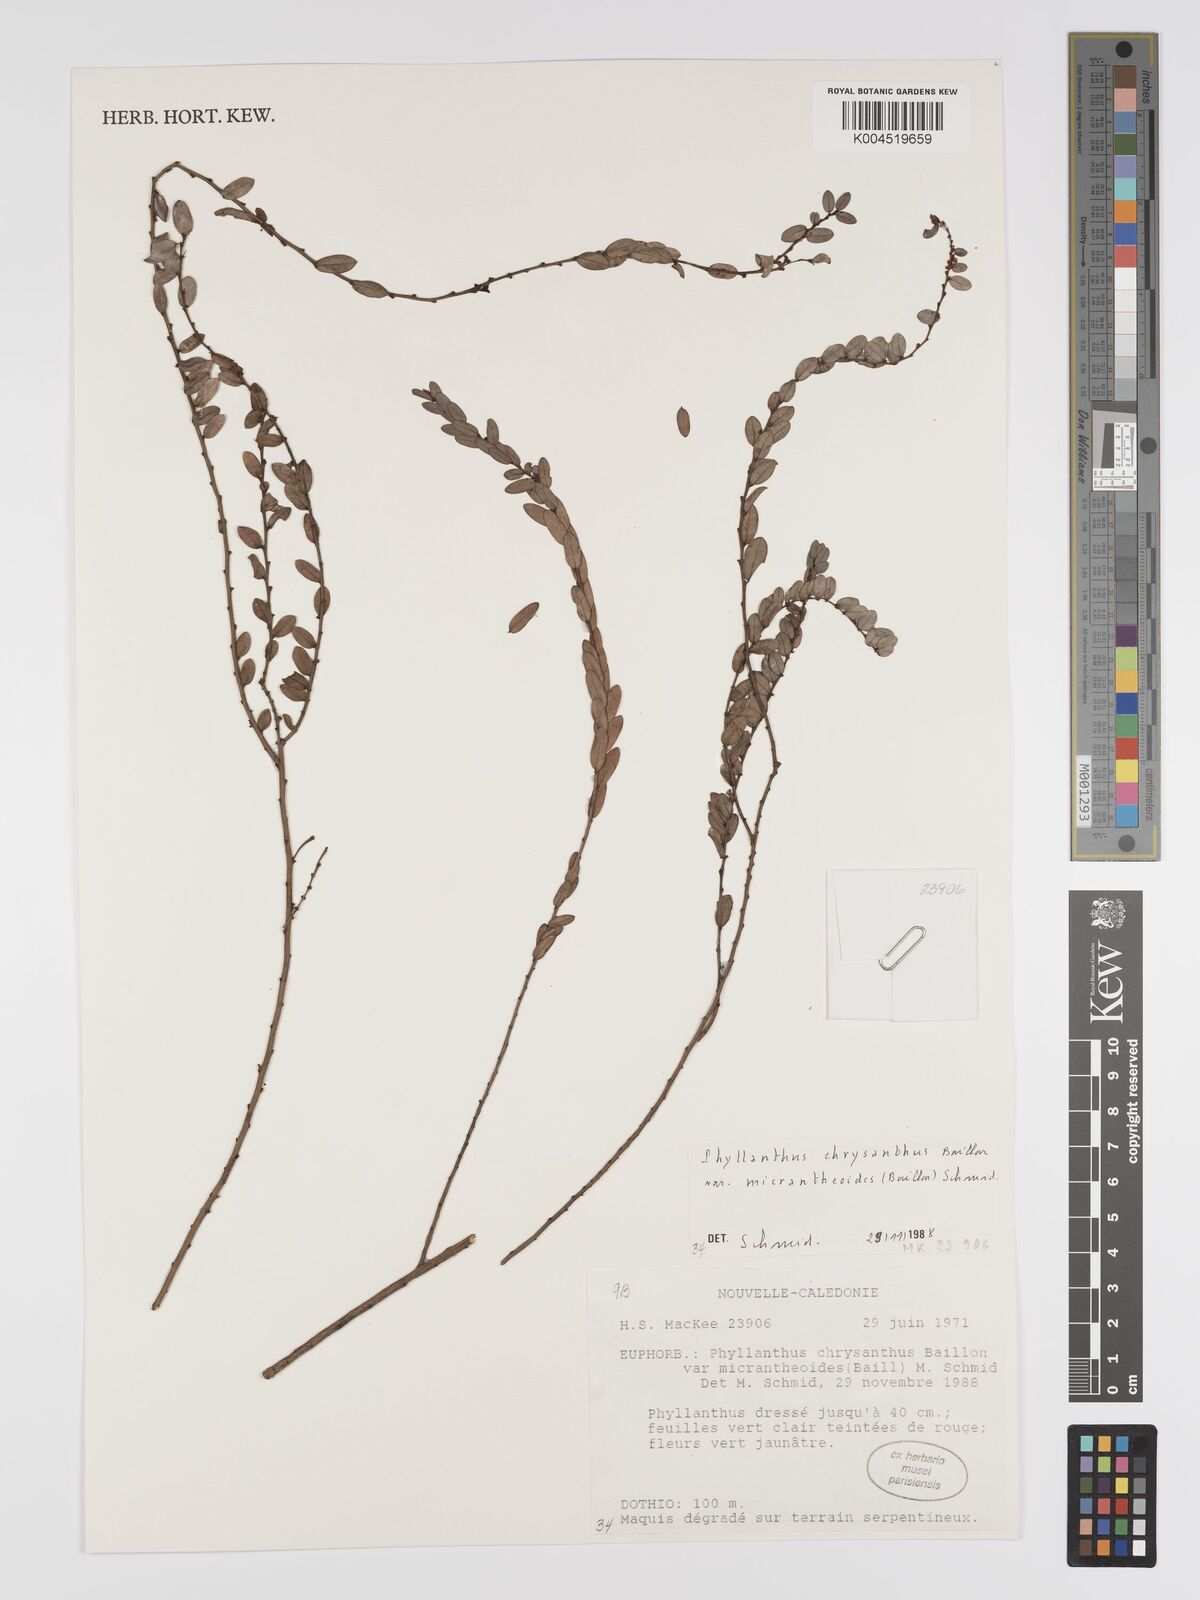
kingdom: Plantae
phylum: Tracheophyta
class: Magnoliopsida
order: Malpighiales
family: Phyllanthaceae
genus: Phyllanthus
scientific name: Phyllanthus chrysanthus
